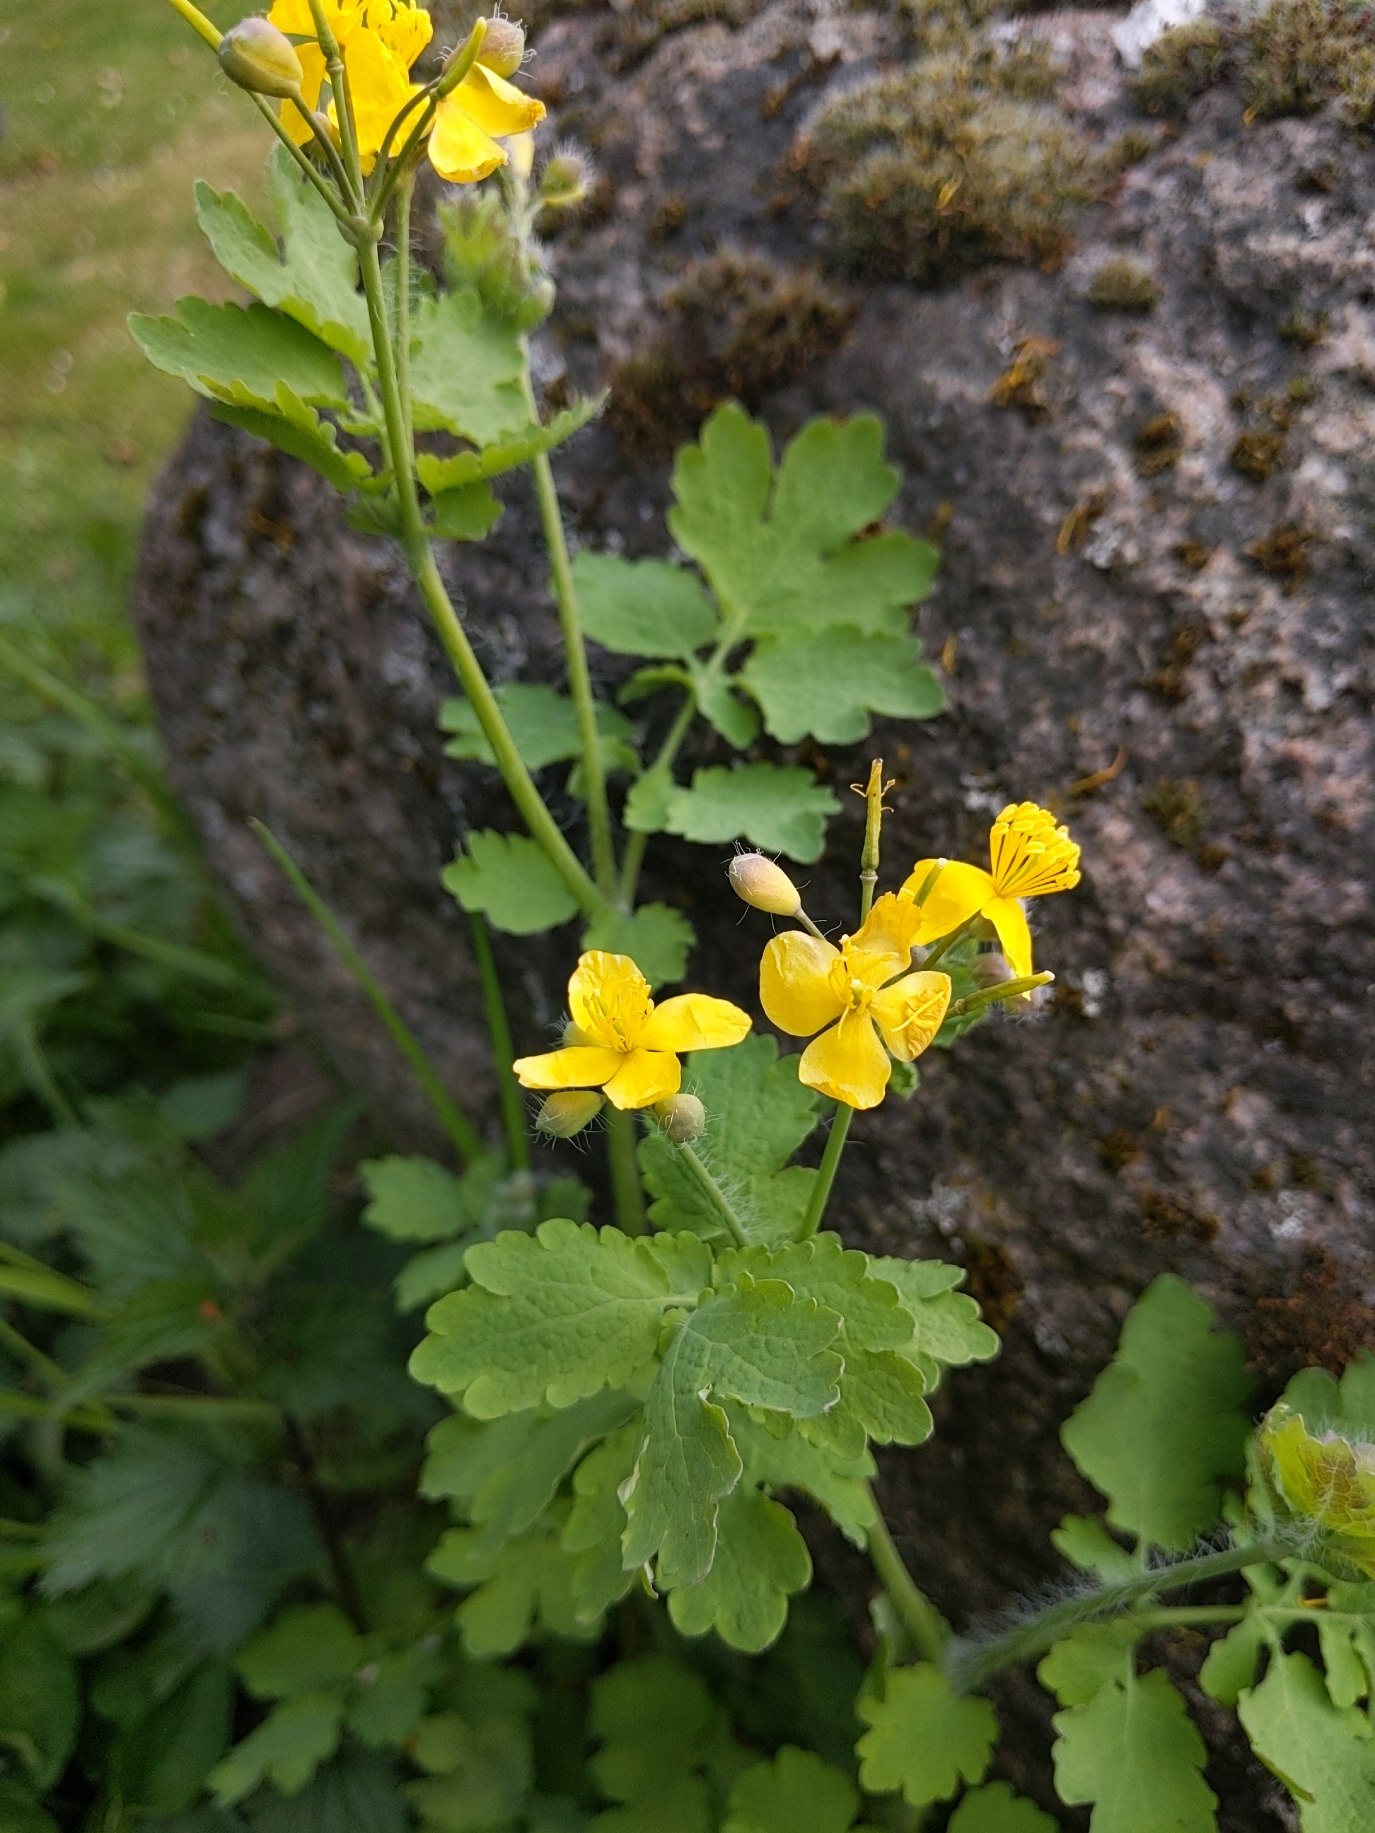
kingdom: Plantae
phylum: Tracheophyta
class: Magnoliopsida
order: Ranunculales
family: Papaveraceae
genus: Chelidonium
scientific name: Chelidonium majus
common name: Svaleurt
